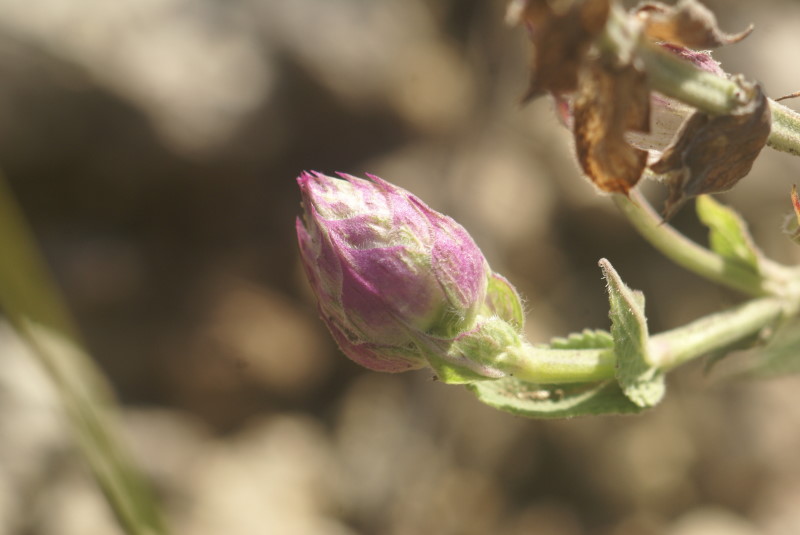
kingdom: Plantae
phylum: Tracheophyta
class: Magnoliopsida
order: Lamiales
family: Lamiaceae
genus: Salvia
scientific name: Salvia
